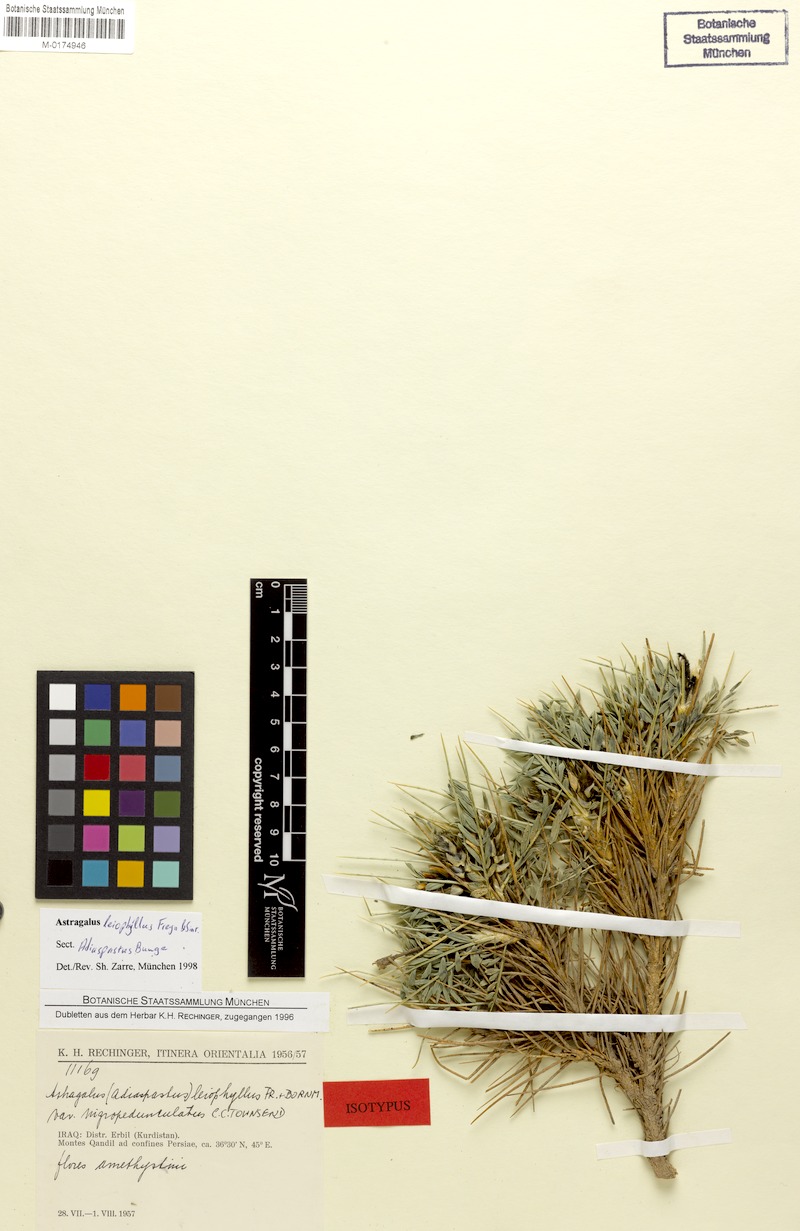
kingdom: Plantae
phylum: Tracheophyta
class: Magnoliopsida
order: Fabales
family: Fabaceae
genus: Astragalus
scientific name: Astragalus leiophyllus
